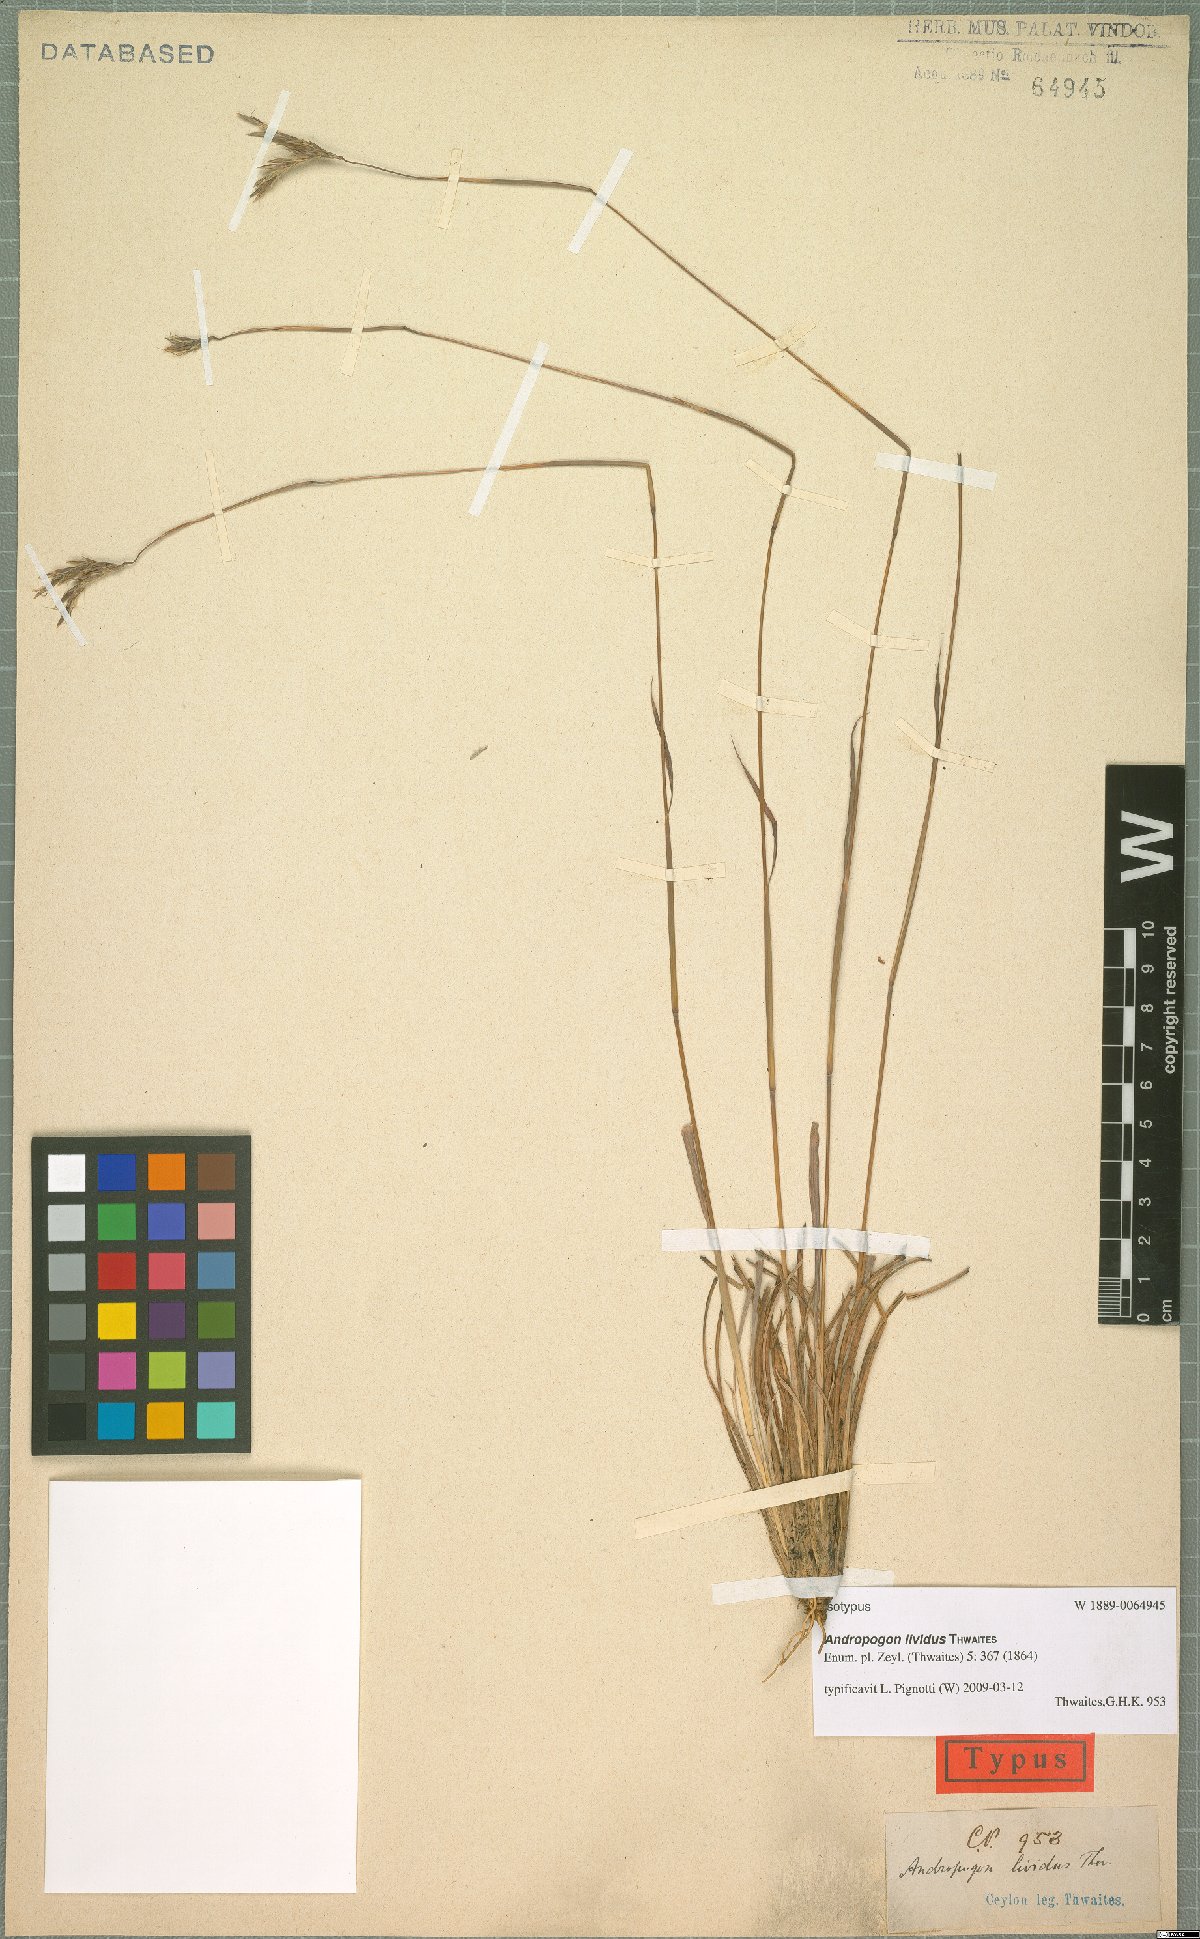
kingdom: Plantae
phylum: Tracheophyta
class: Liliopsida
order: Poales
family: Poaceae
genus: Andropogon
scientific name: Andropogon lividus
